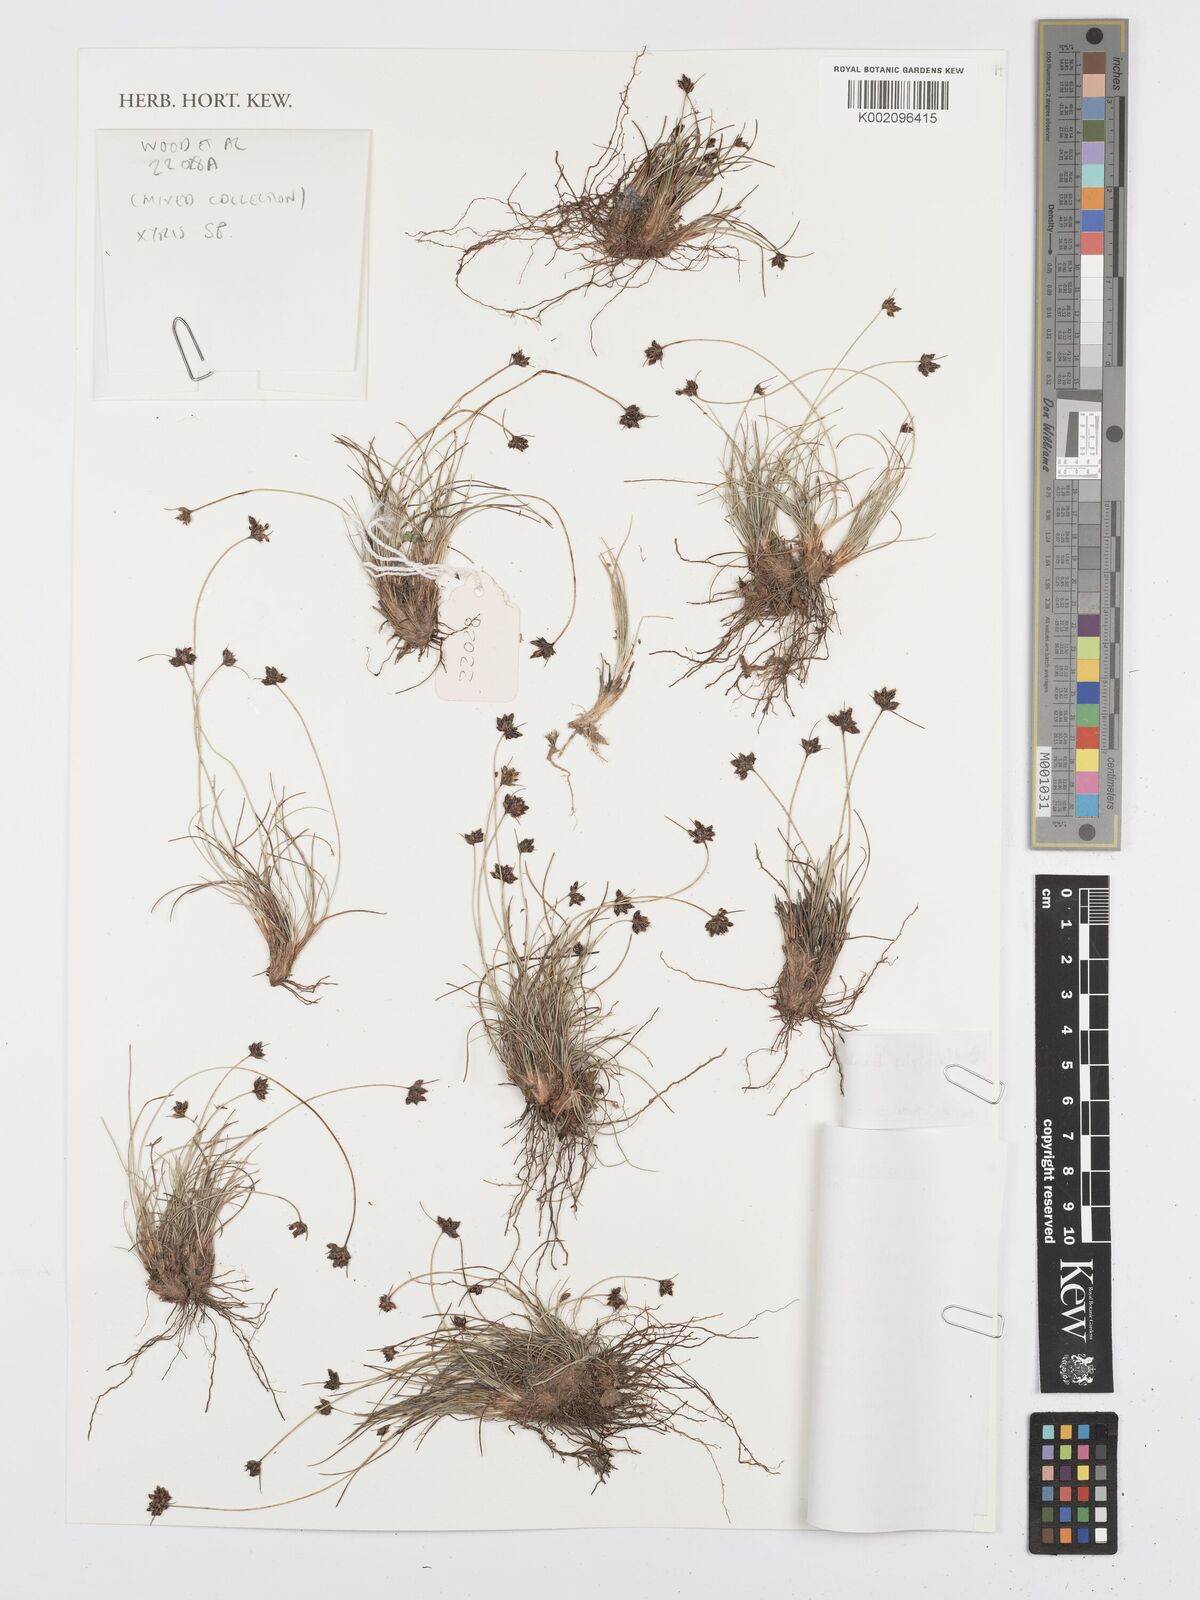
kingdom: Plantae
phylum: Tracheophyta
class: Liliopsida
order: Poales
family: Cyperaceae
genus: Bulbostylis
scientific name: Bulbostylis barbata
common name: Watergrass
